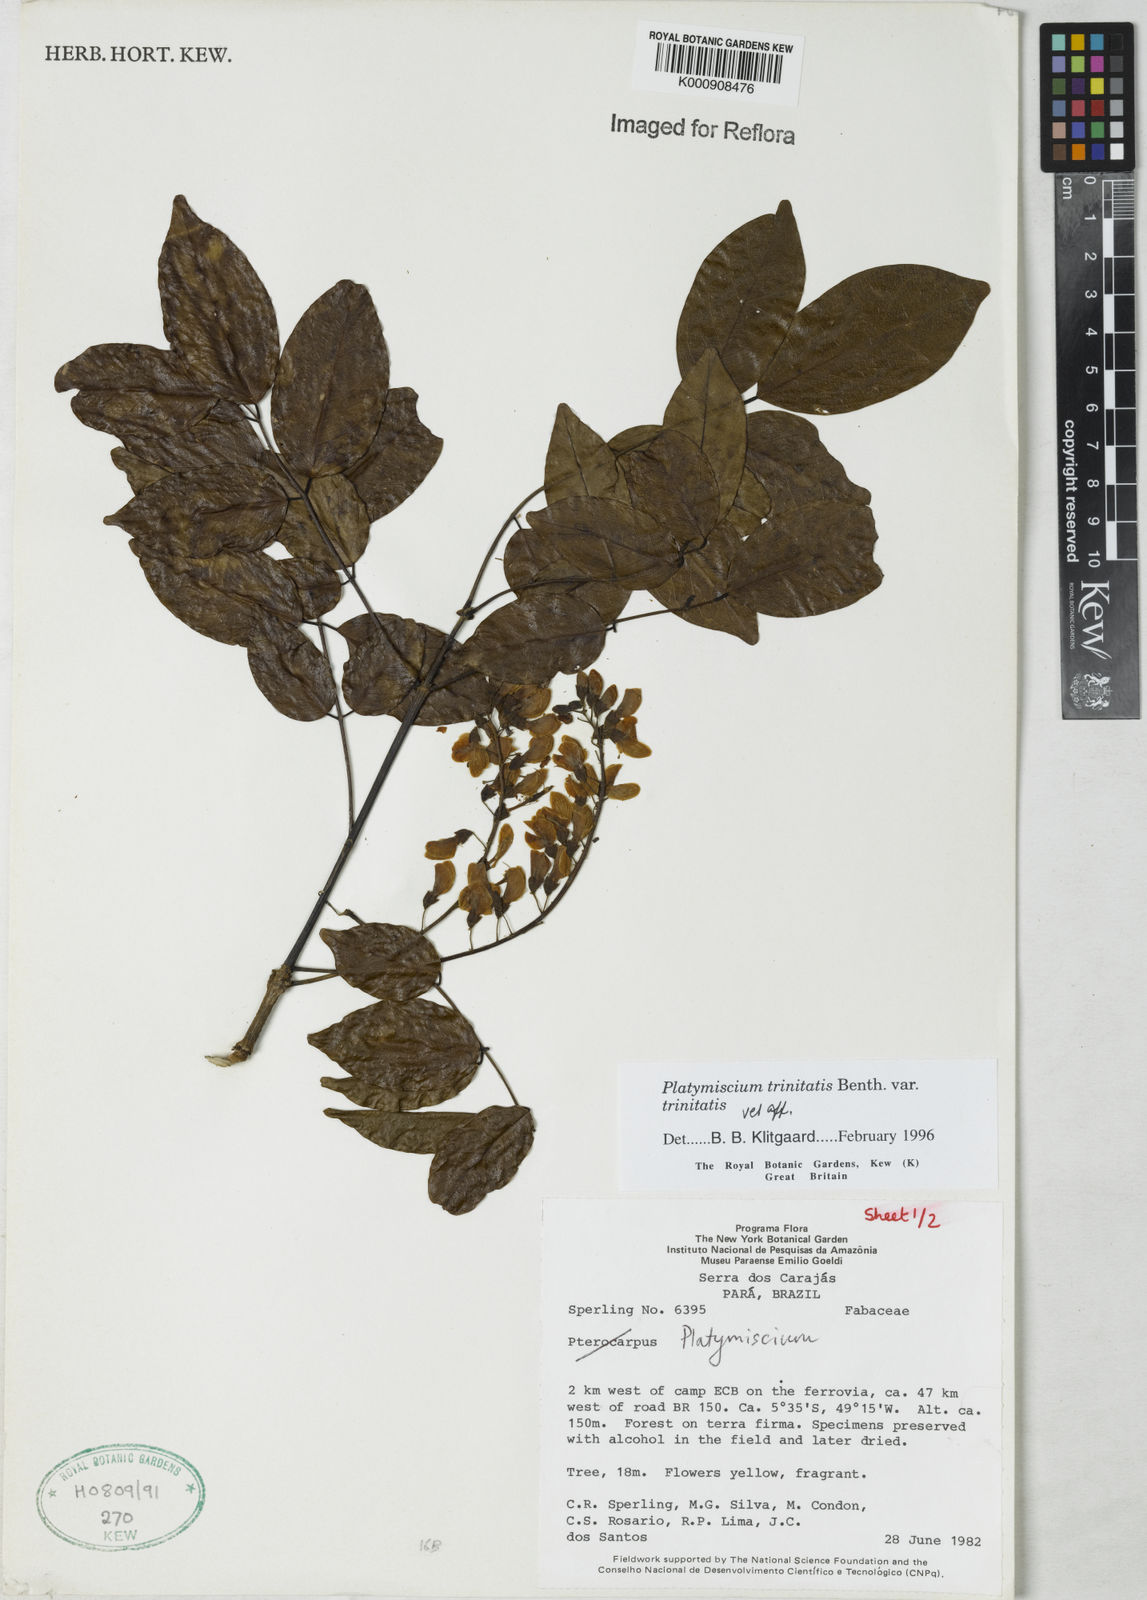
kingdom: Plantae
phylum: Tracheophyta
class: Magnoliopsida
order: Fabales
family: Fabaceae
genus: Platymiscium
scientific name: Platymiscium trinitatis
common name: Trinidad macawood
